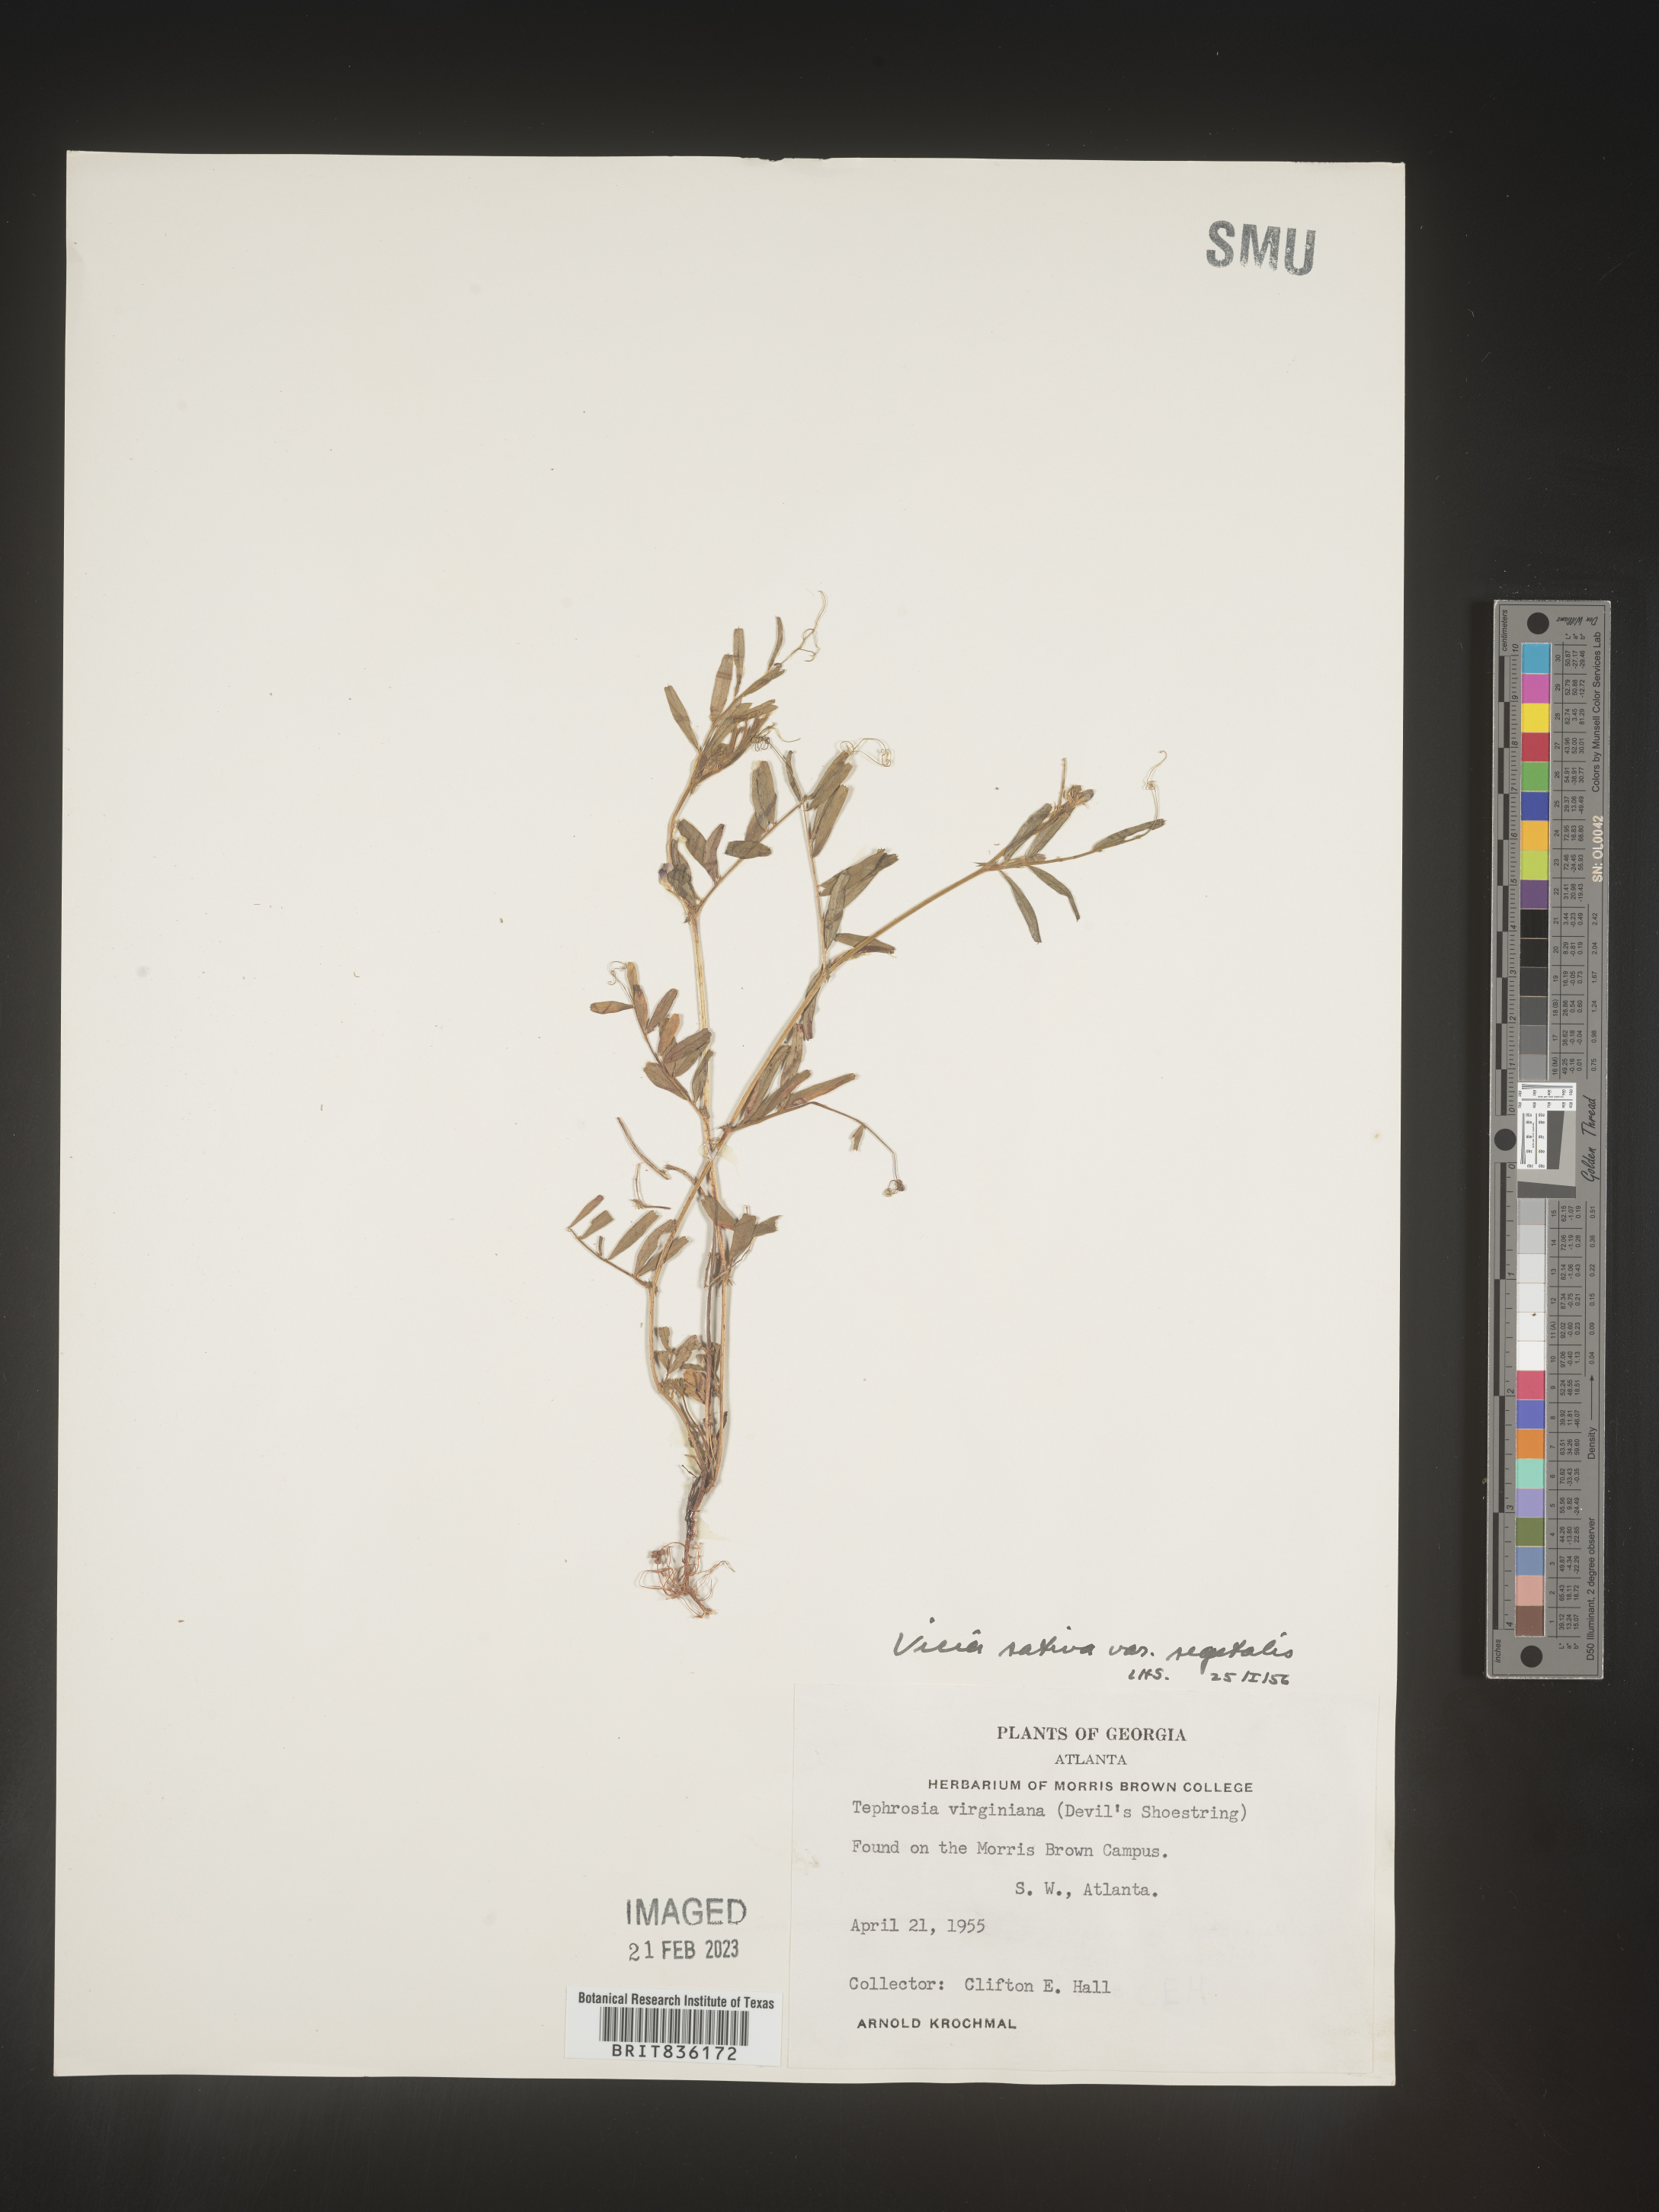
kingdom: Plantae
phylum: Tracheophyta
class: Magnoliopsida
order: Fabales
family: Fabaceae
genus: Vicia
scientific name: Vicia sativa
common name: Garden vetch
